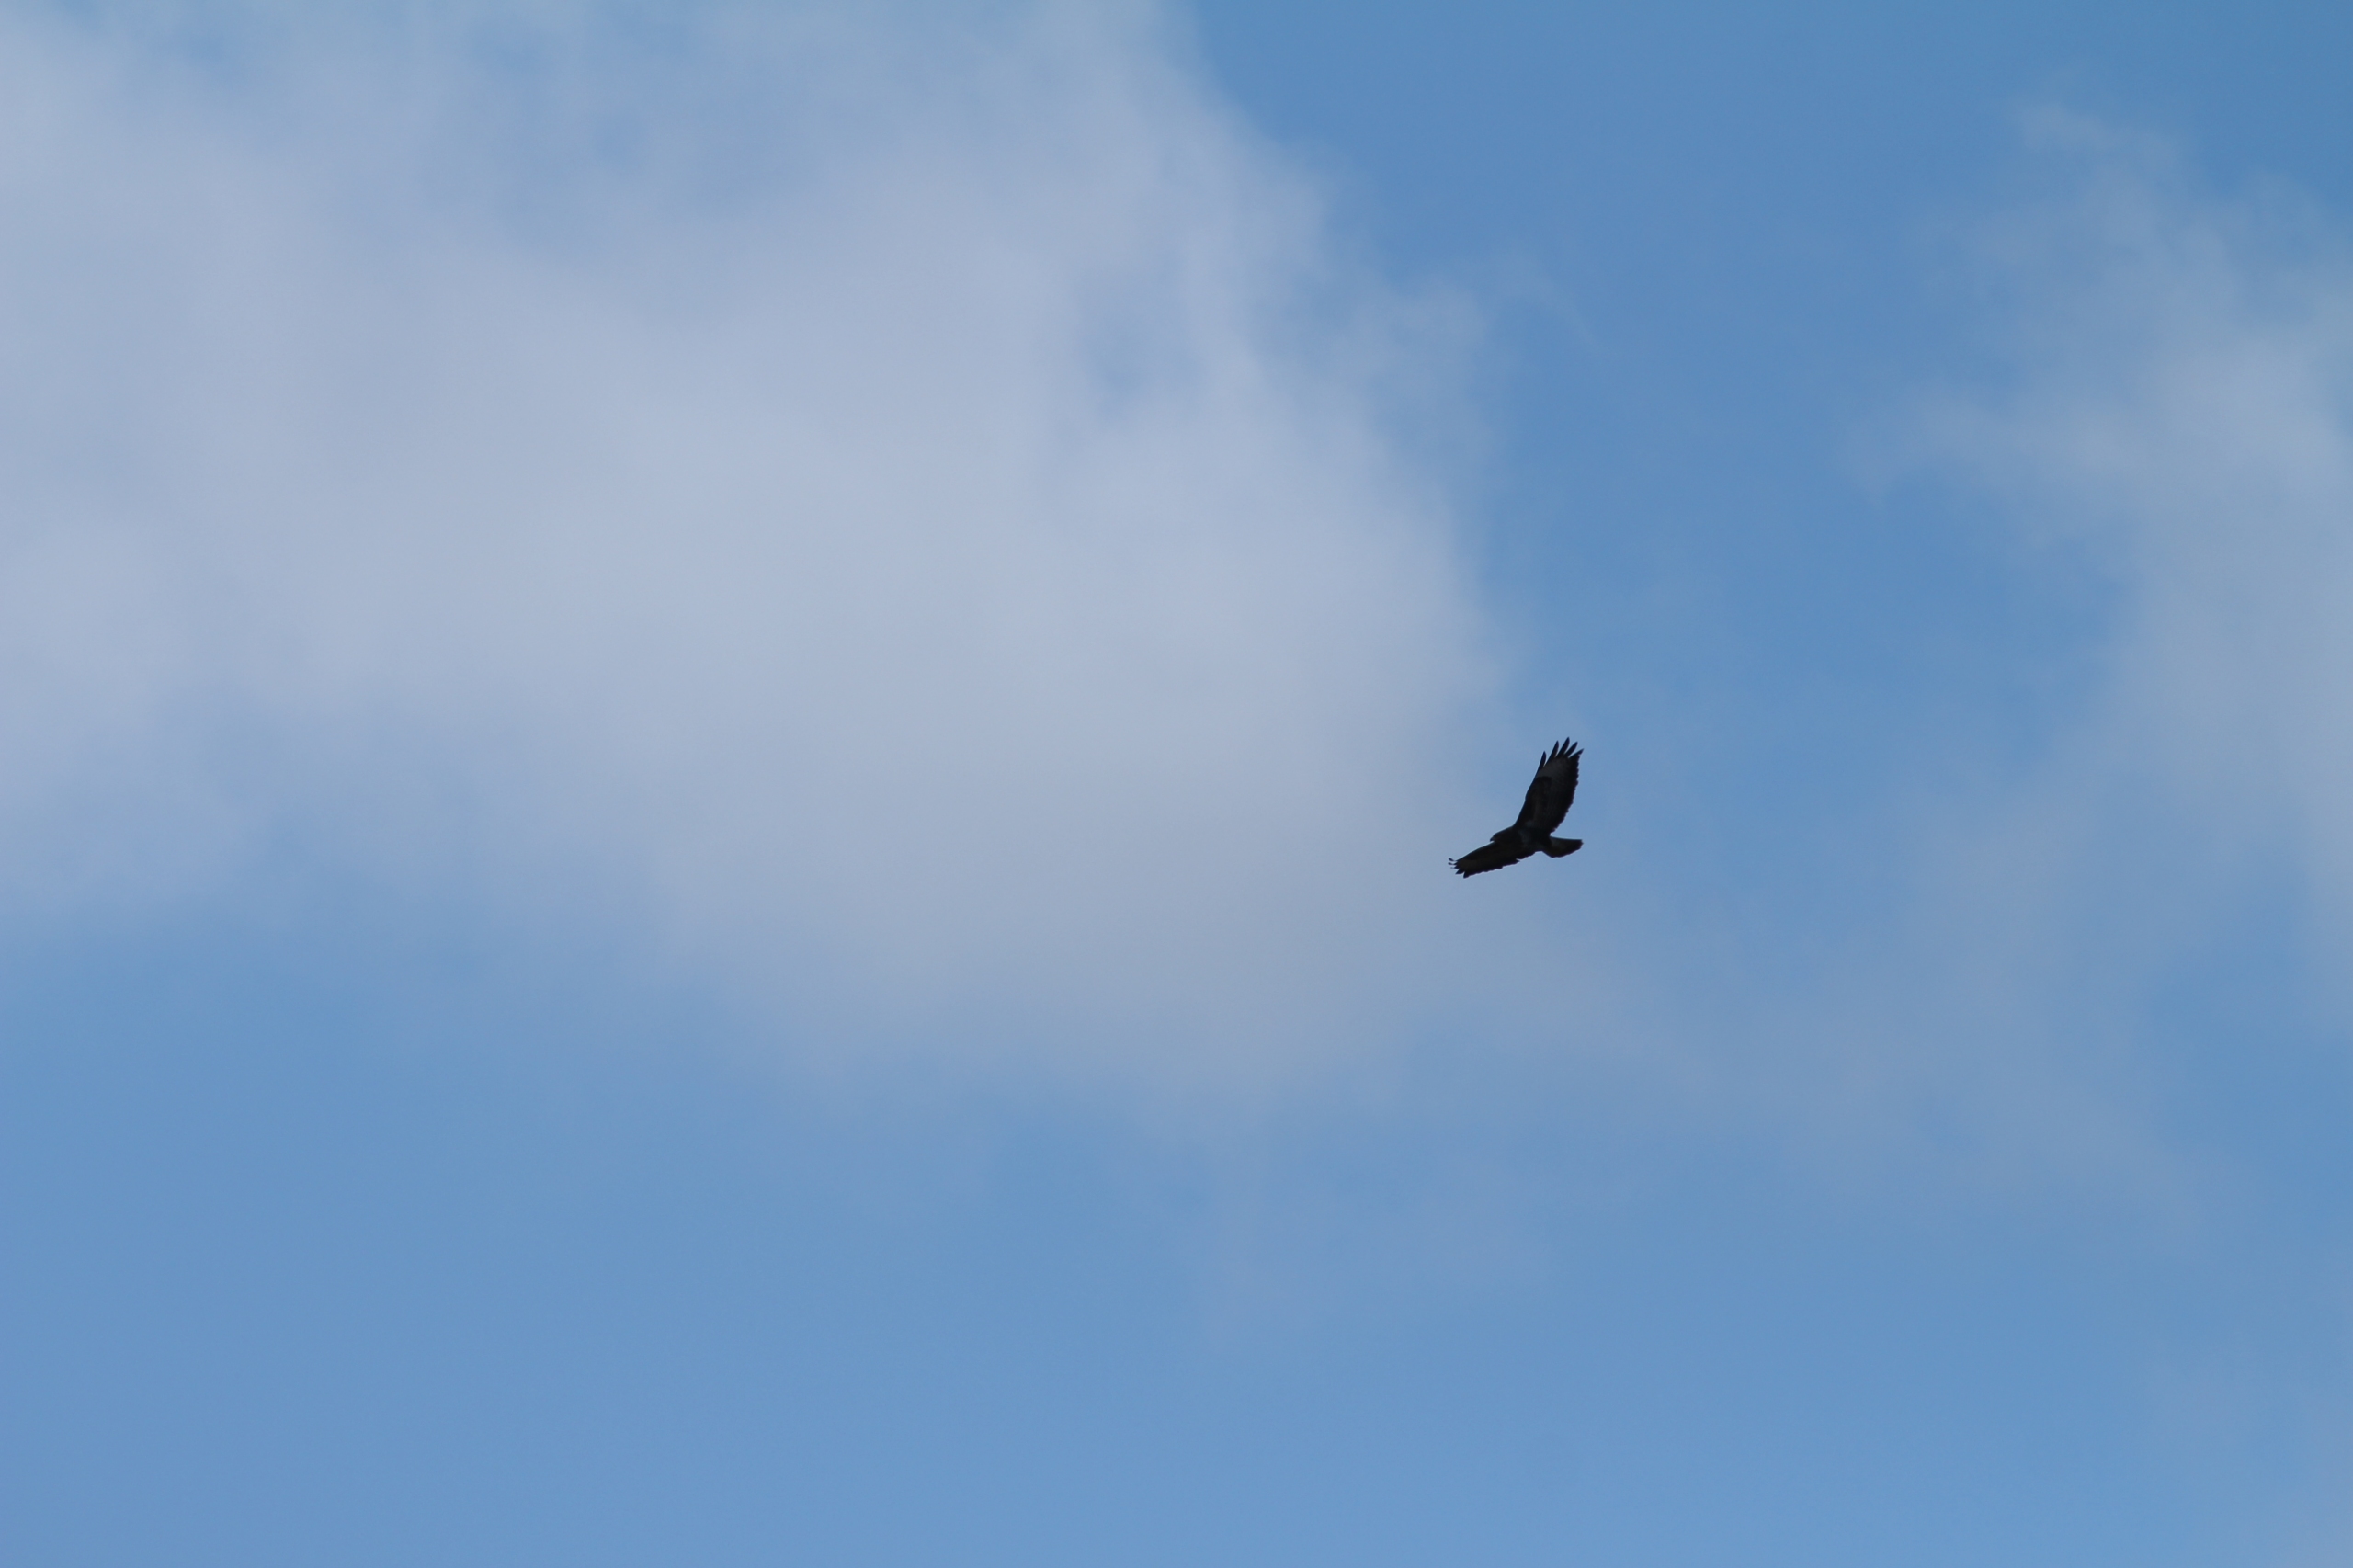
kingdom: Animalia
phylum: Chordata
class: Aves
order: Accipitriformes
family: Accipitridae
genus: Buteo
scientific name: Buteo buteo
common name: Musvåge
